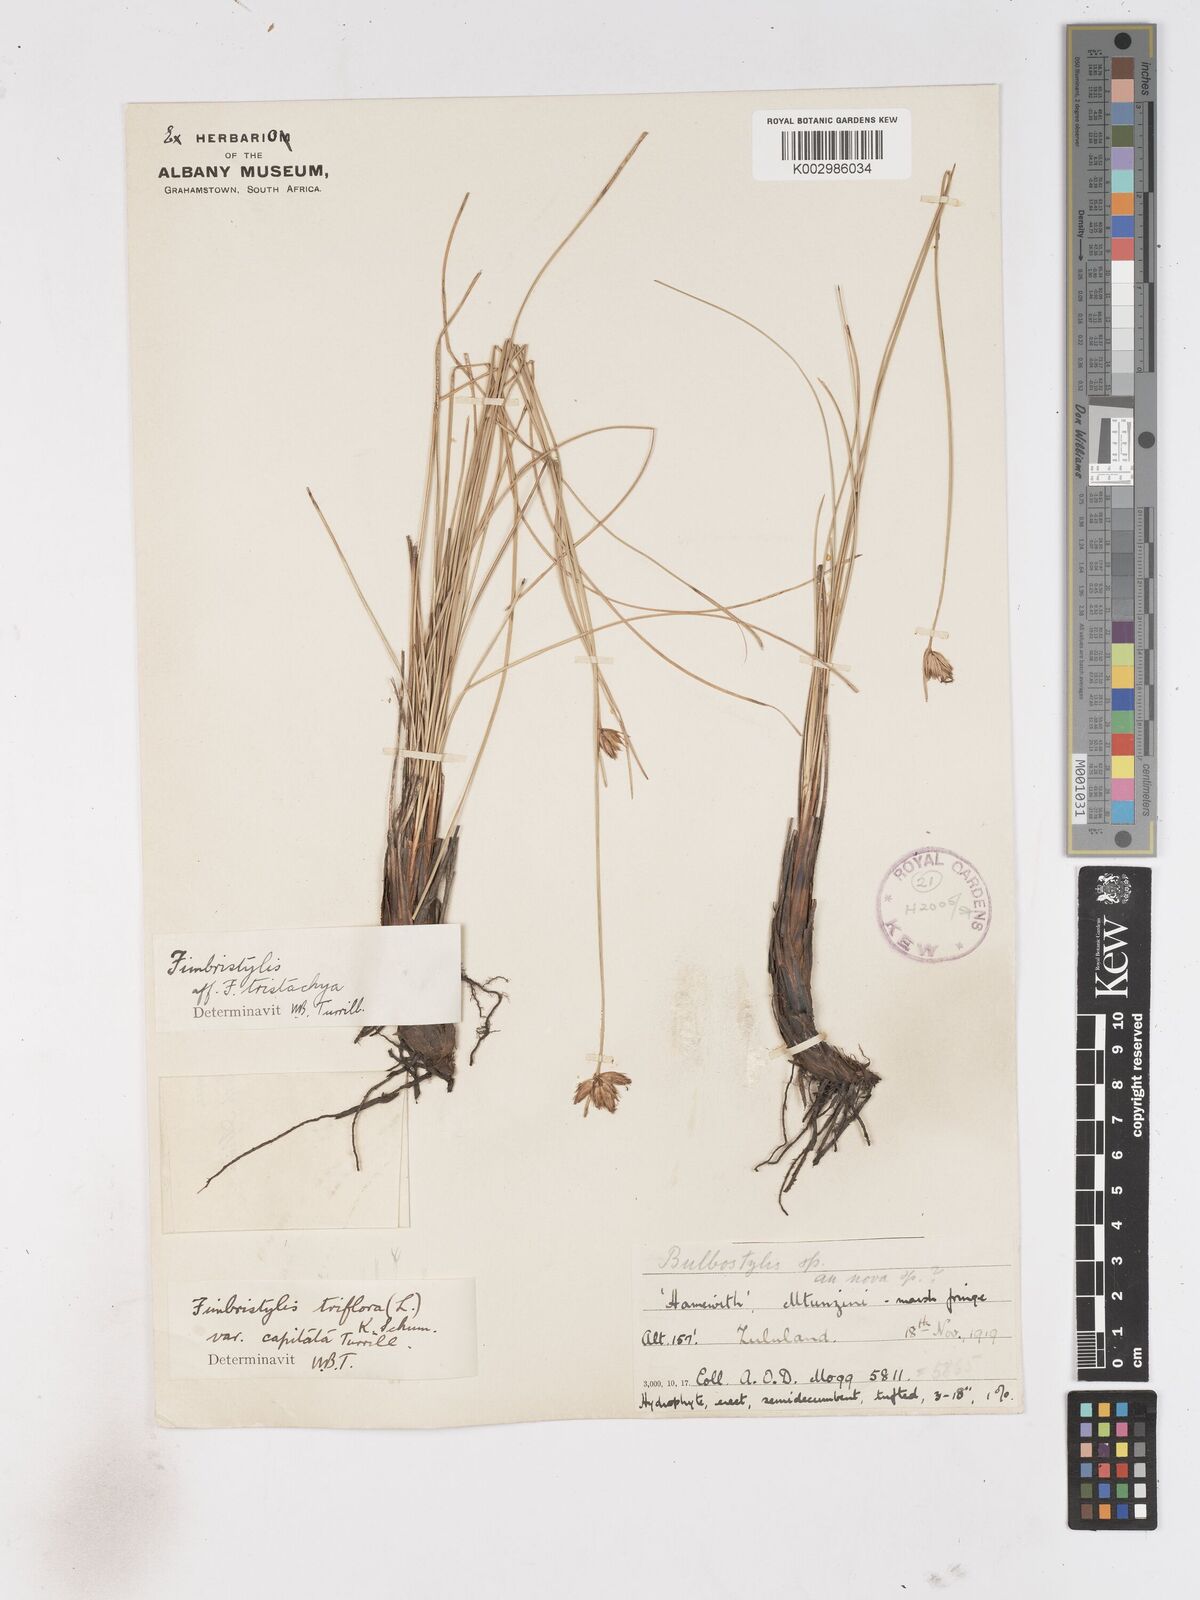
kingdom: Plantae
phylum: Tracheophyta
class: Liliopsida
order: Poales
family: Cyperaceae
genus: Abildgaardia
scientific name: Abildgaardia triflora
